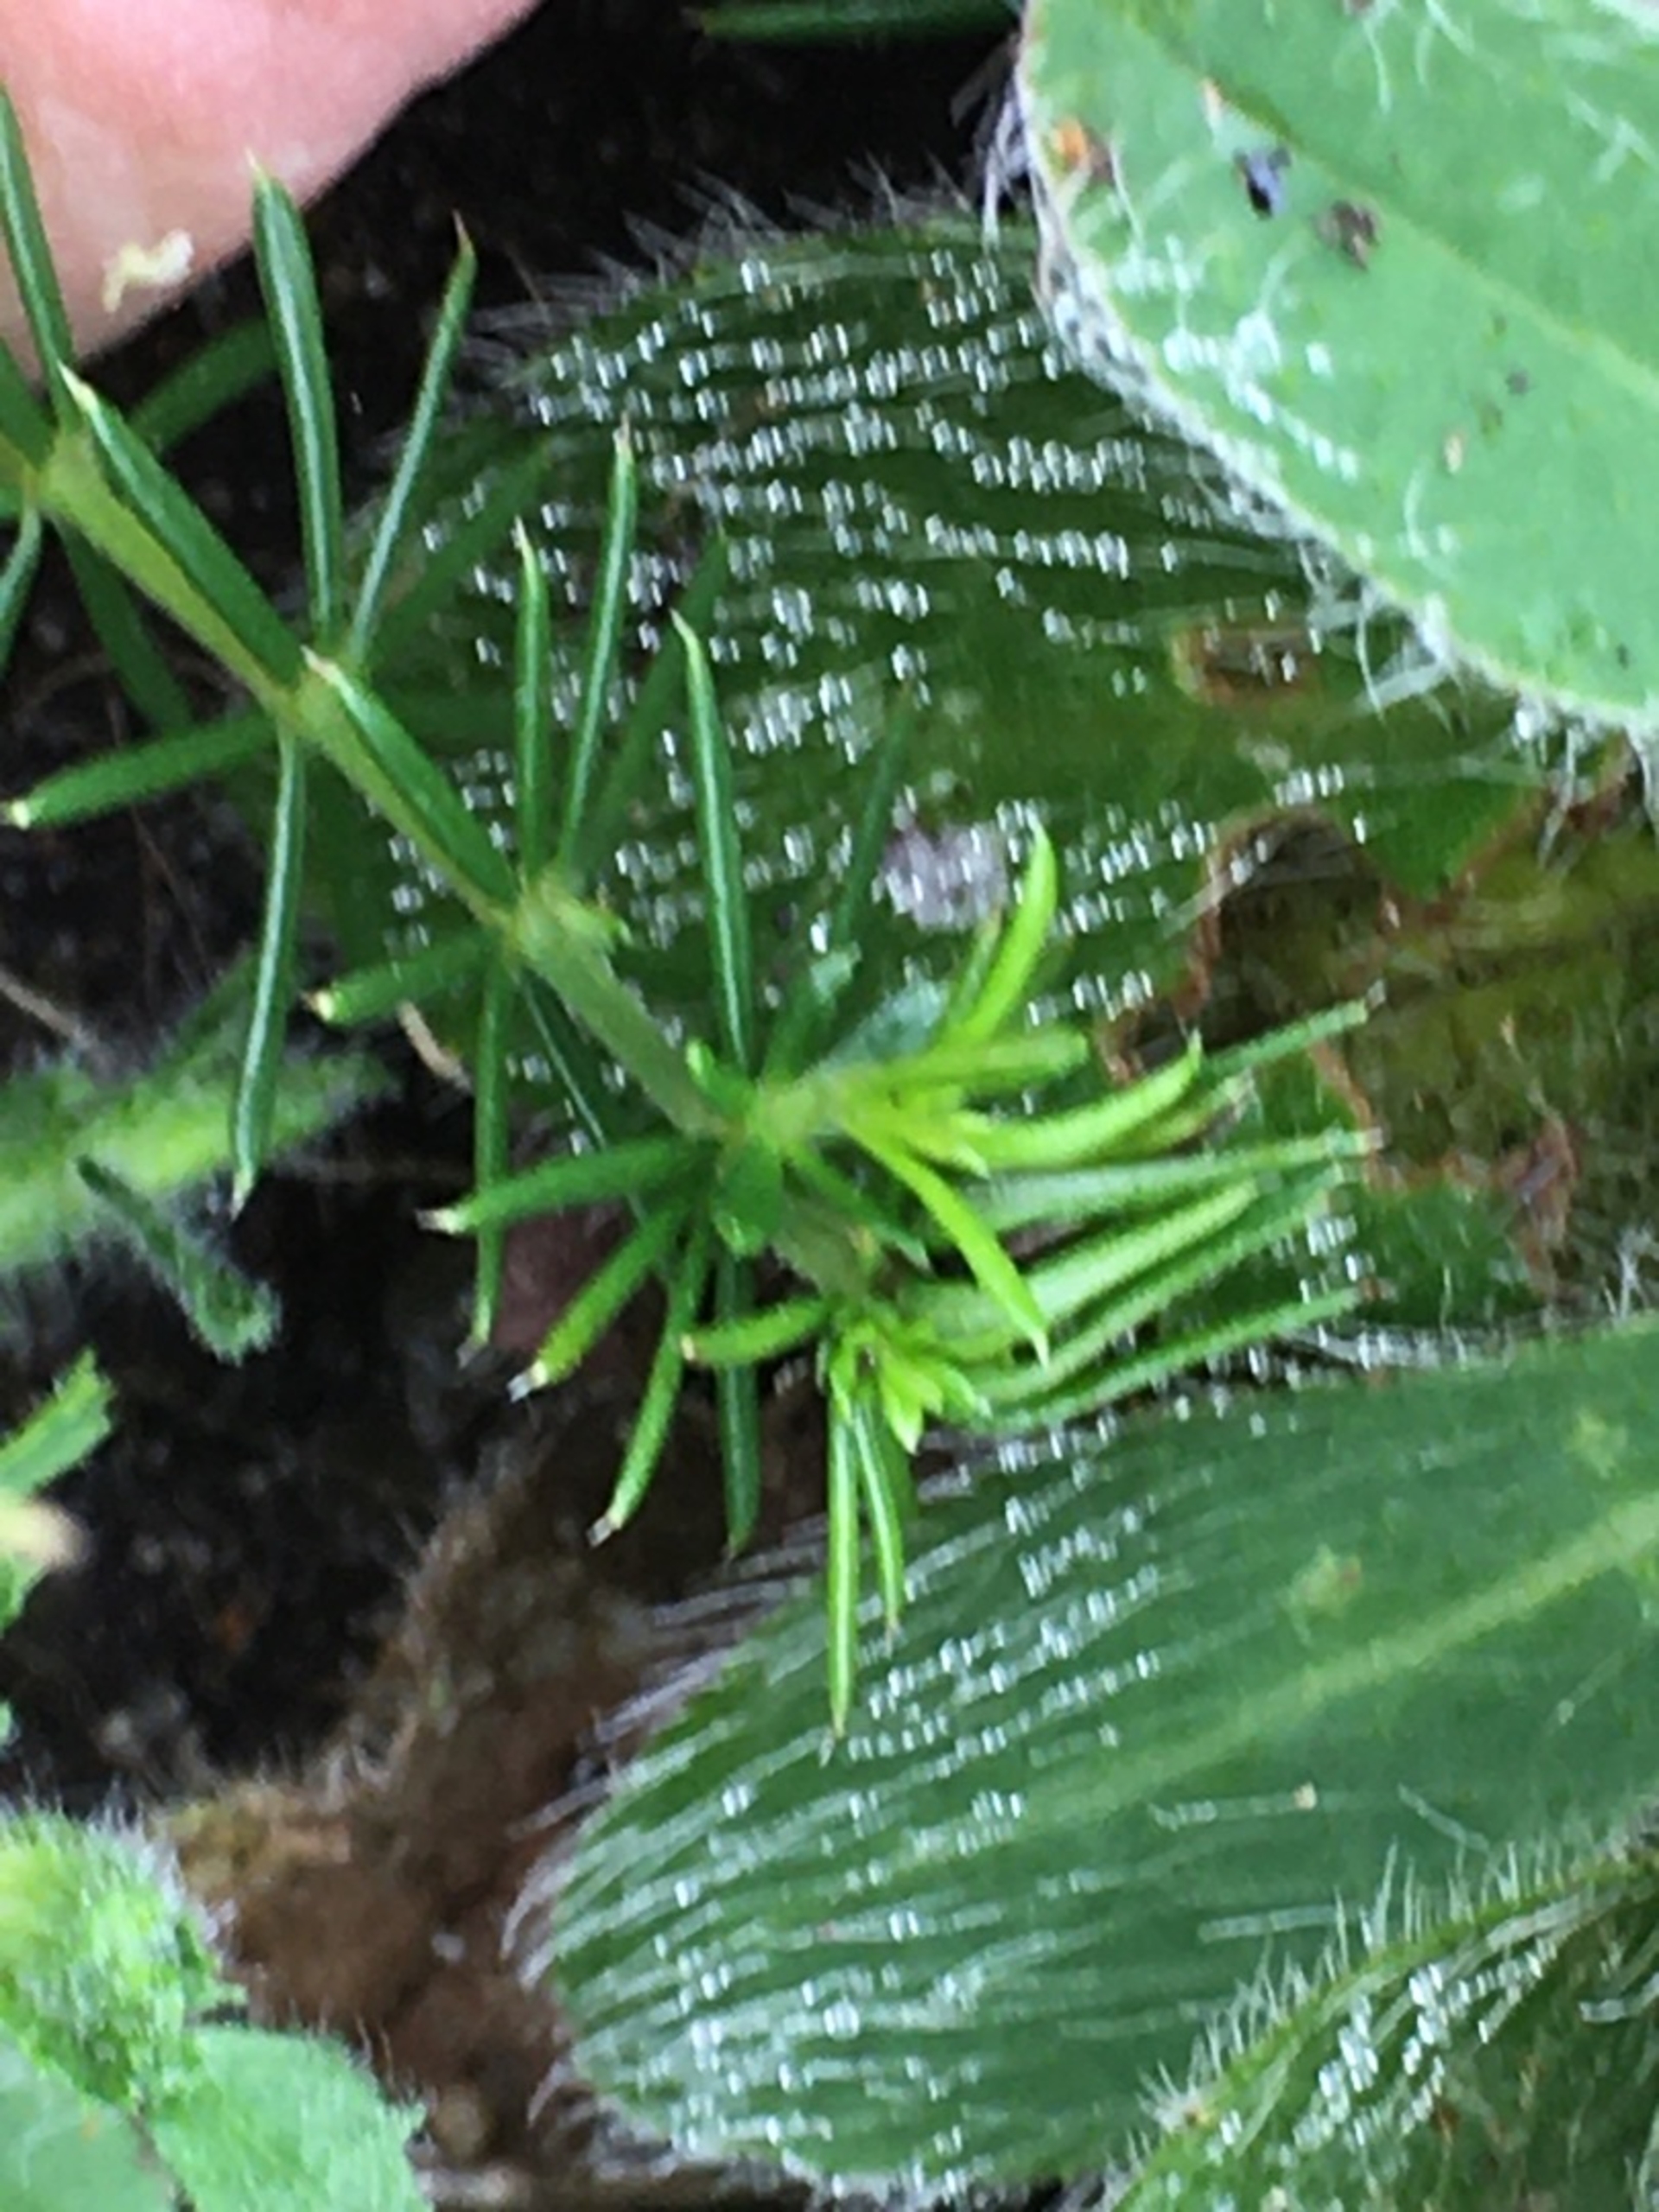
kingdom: Animalia
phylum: Arthropoda
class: Insecta
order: Diptera
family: Cecidomyiidae
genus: Contarinia
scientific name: Contarinia vera
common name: Snurretopgalmyg
